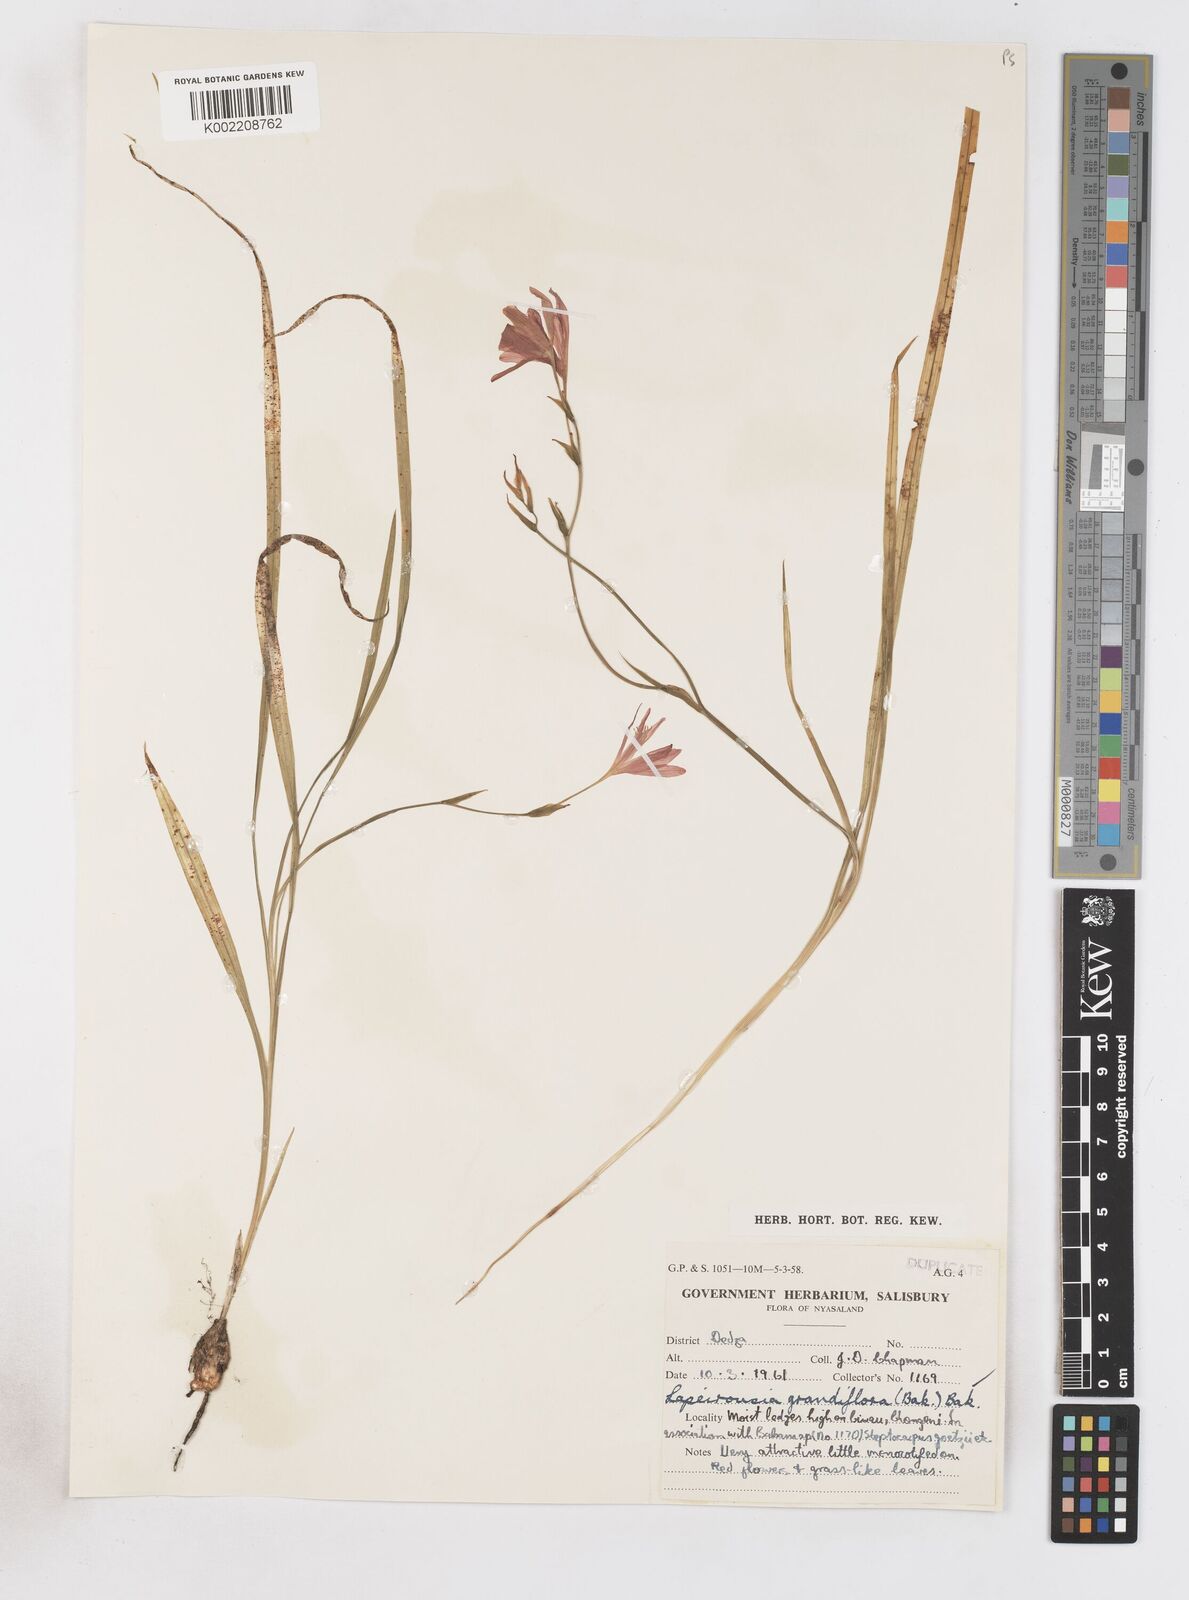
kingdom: Plantae
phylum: Tracheophyta
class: Liliopsida
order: Asparagales
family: Iridaceae
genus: Freesia
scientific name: Freesia grandiflora
